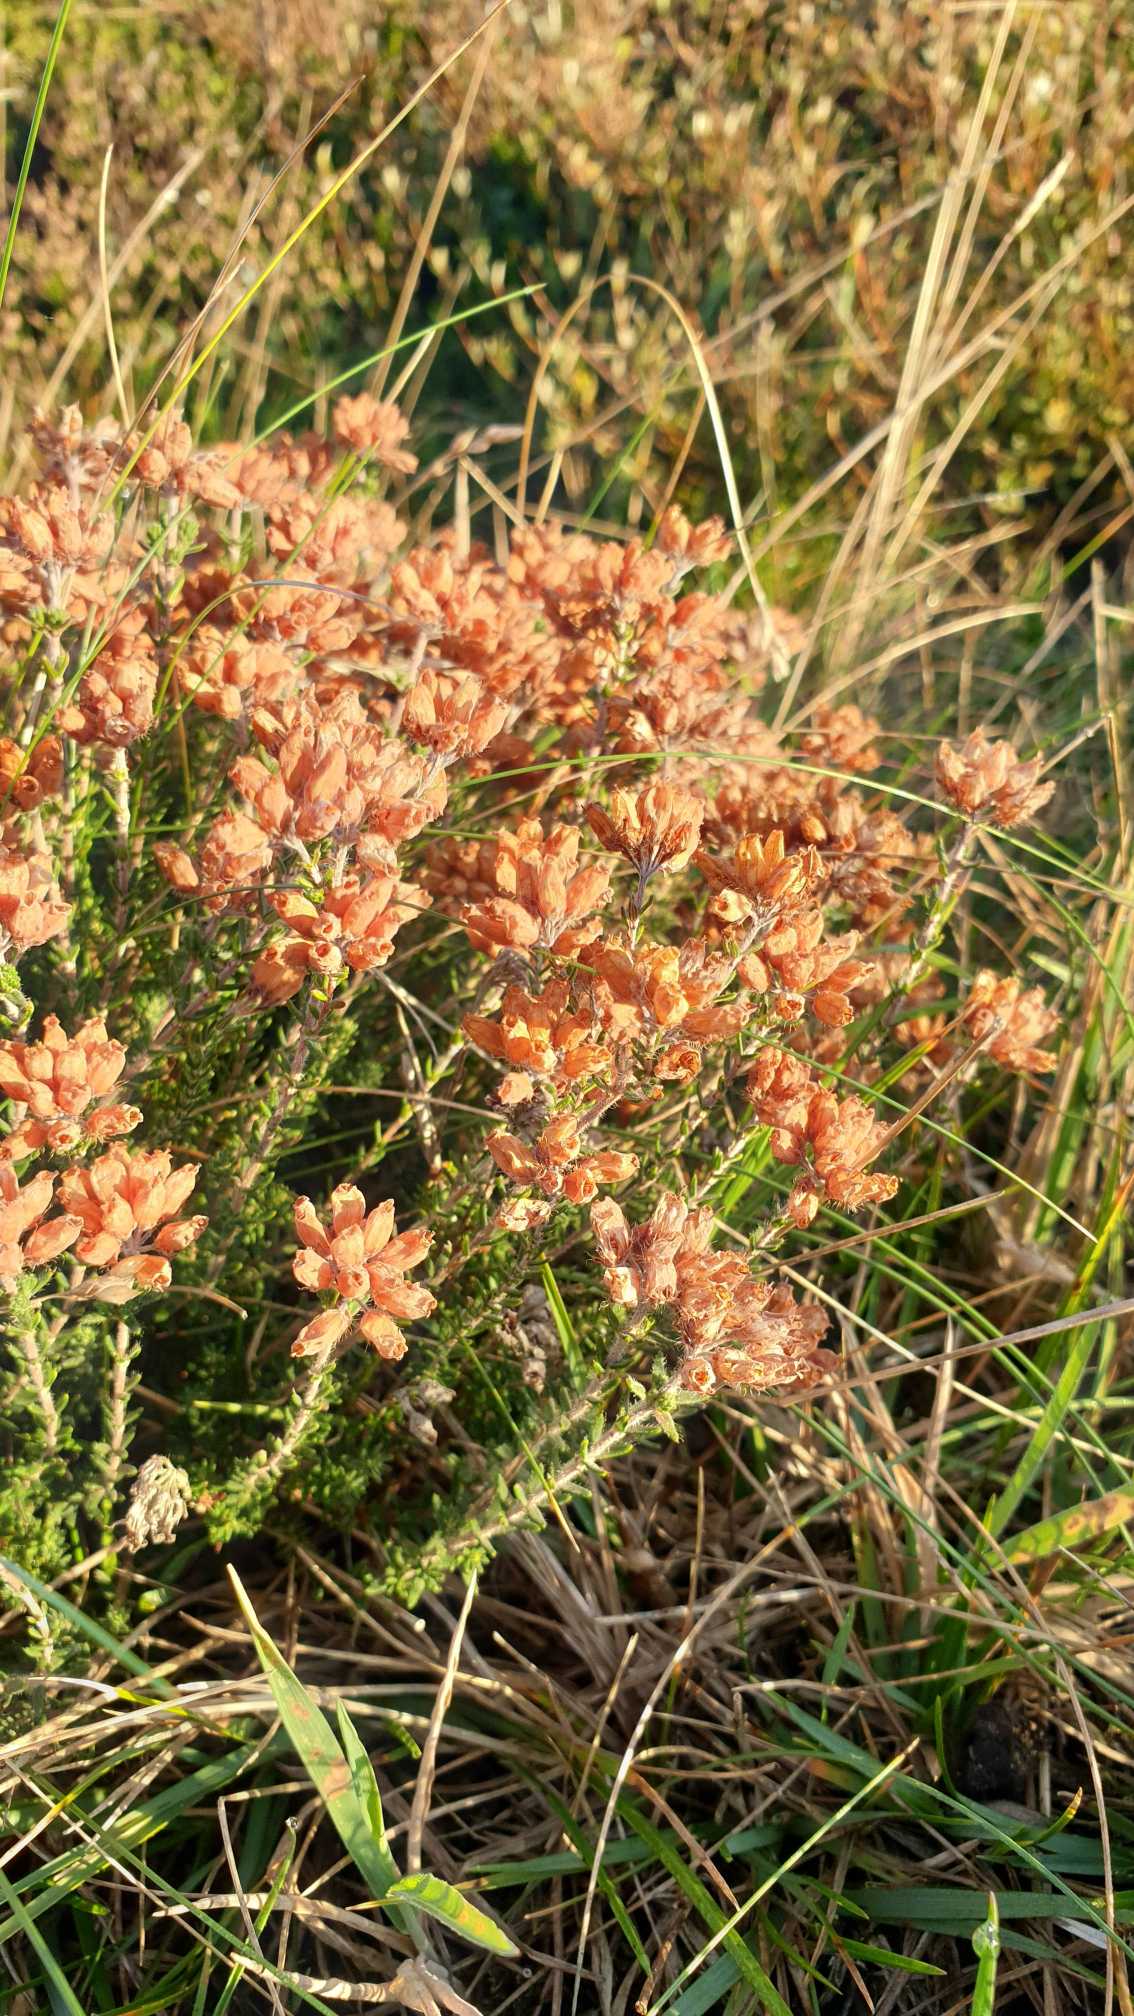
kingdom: Plantae
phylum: Tracheophyta
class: Magnoliopsida
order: Ericales
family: Ericaceae
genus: Erica
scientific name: Erica tetralix
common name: Klokkelyng
